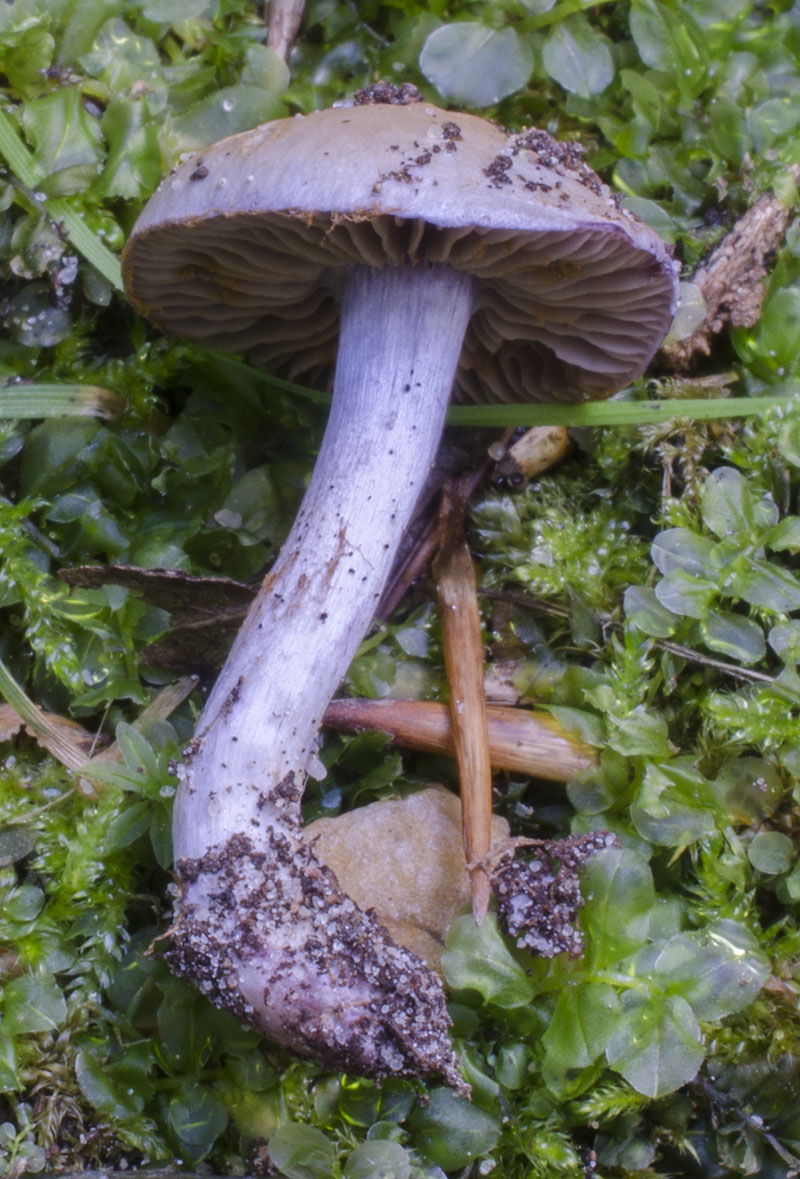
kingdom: Fungi
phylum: Basidiomycota
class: Agaricomycetes
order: Agaricales
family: Cortinariaceae
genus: Thaxterogaster
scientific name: Thaxterogaster subporphyropus
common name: ametyst-slørhat
